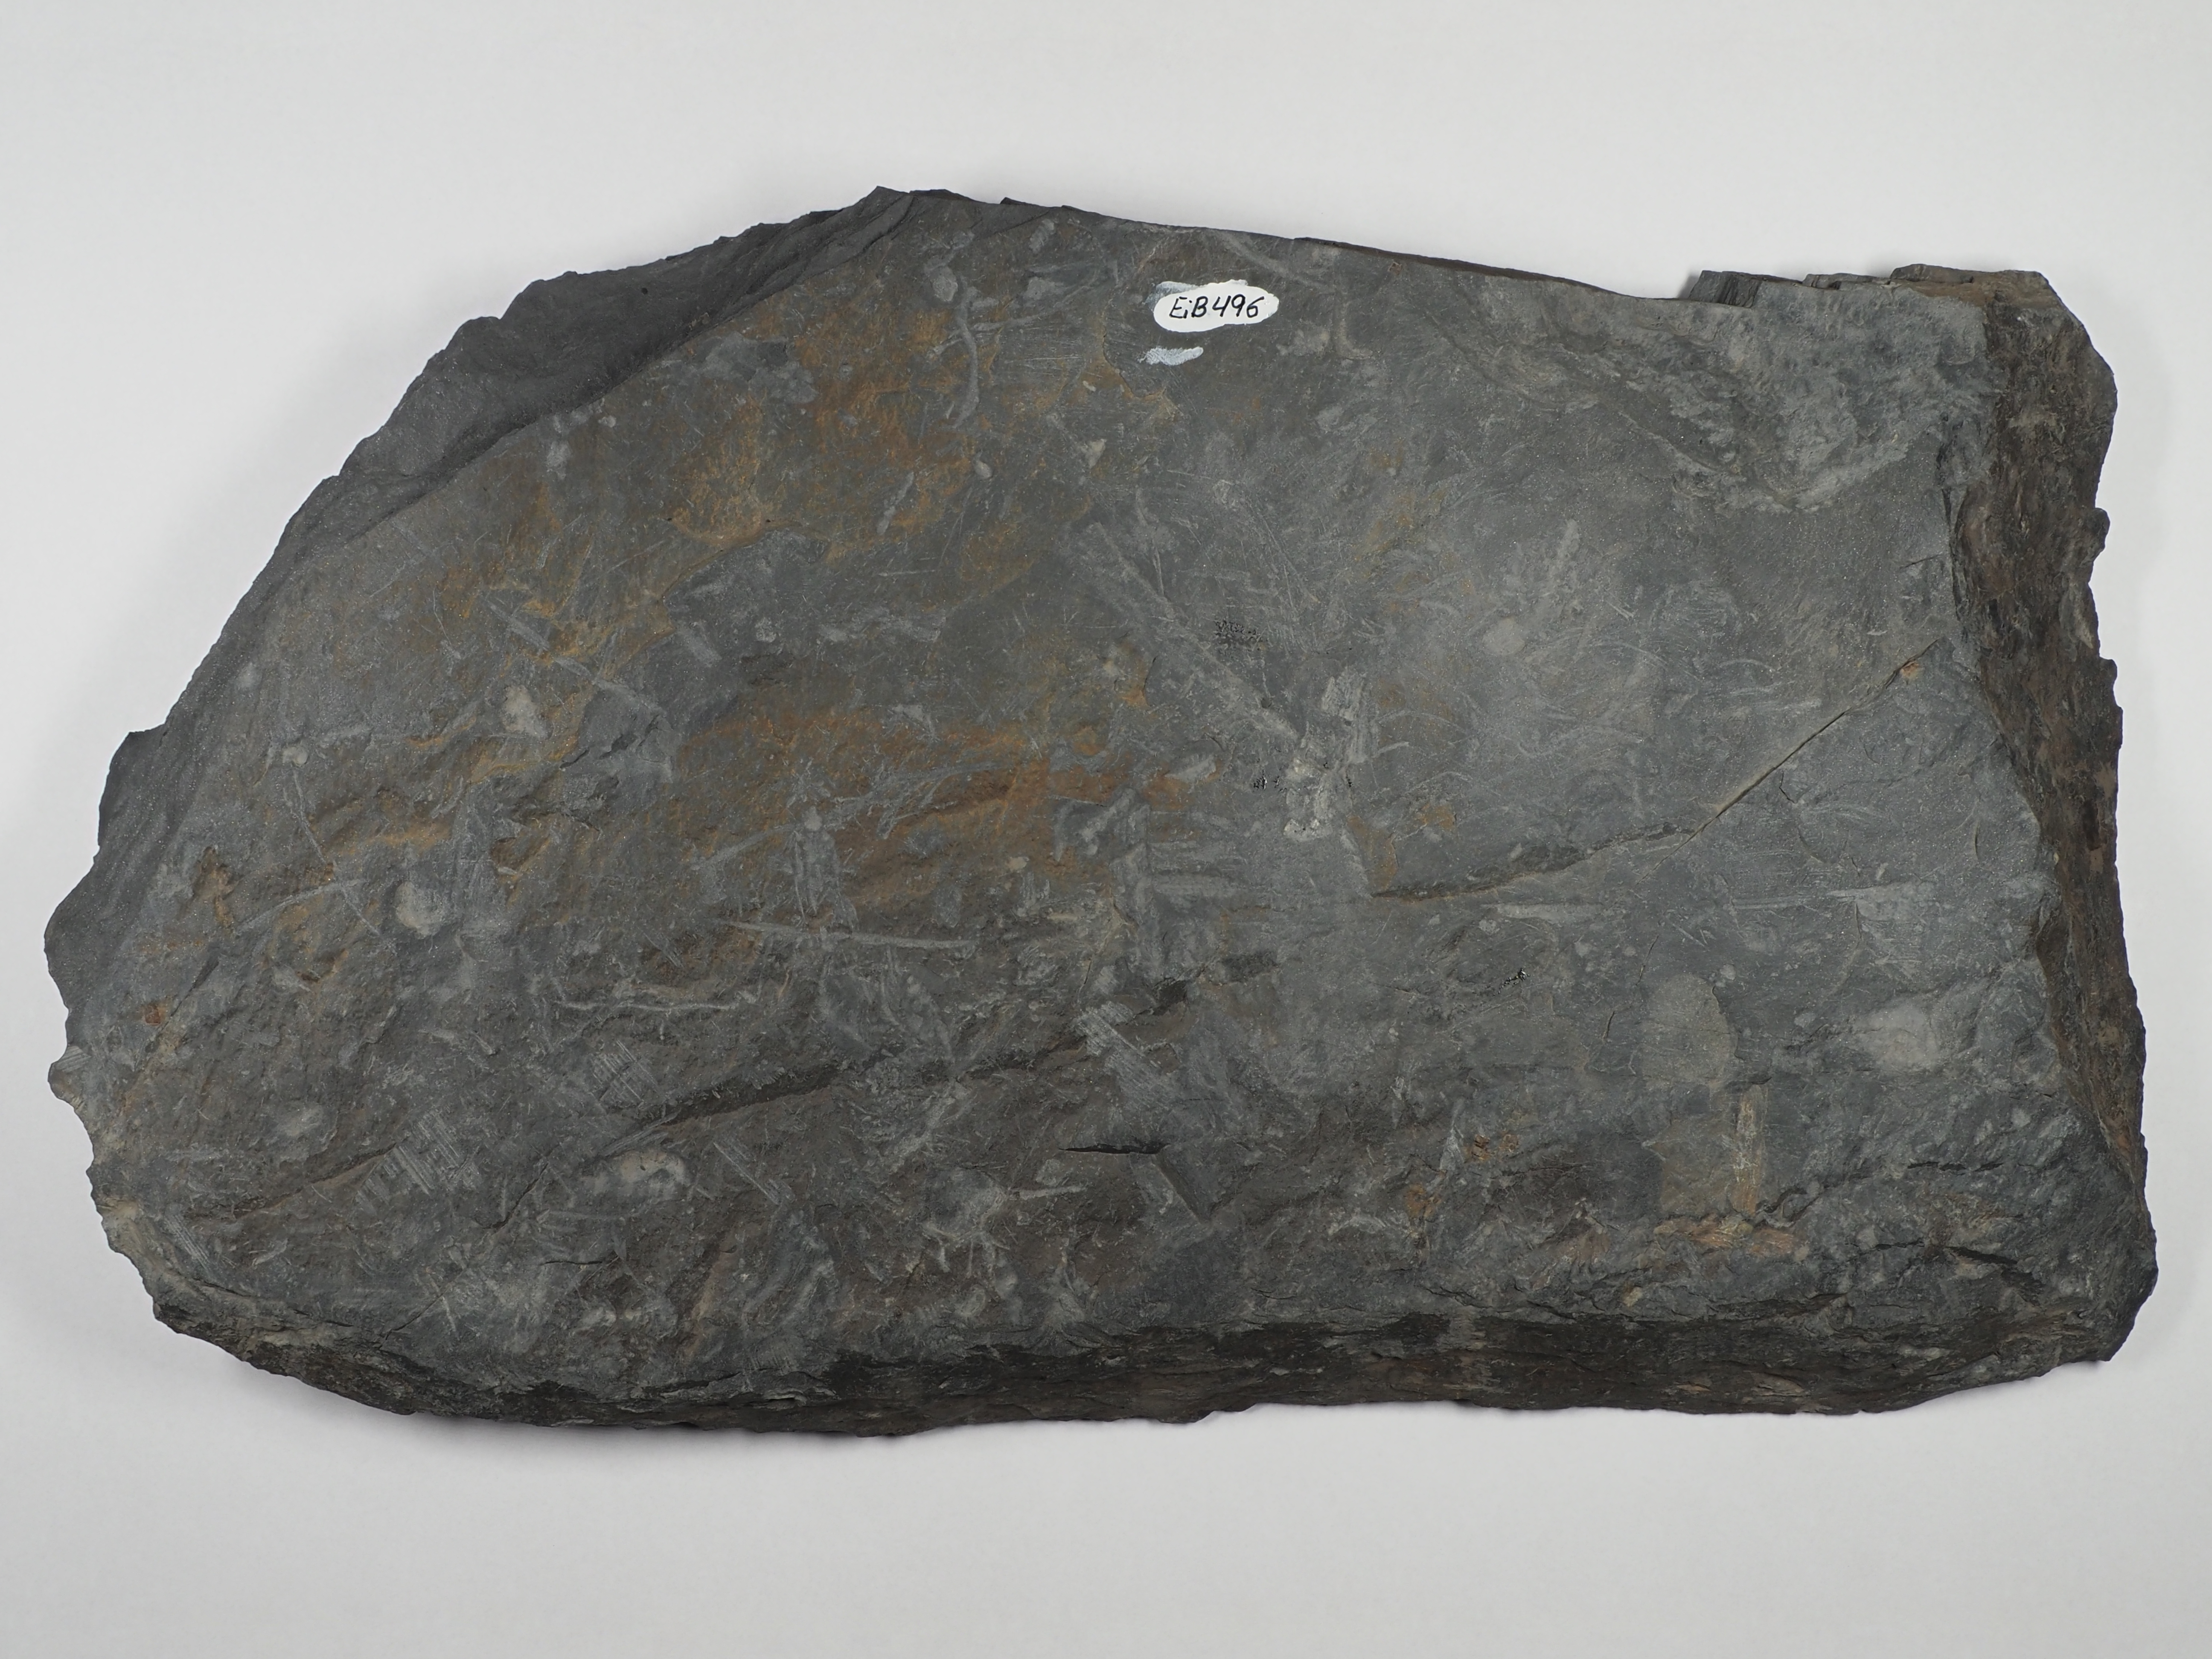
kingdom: Plantae
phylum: Tracheophyta
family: Taeniocradaceae
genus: Taeniocrada
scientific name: Taeniocrada
